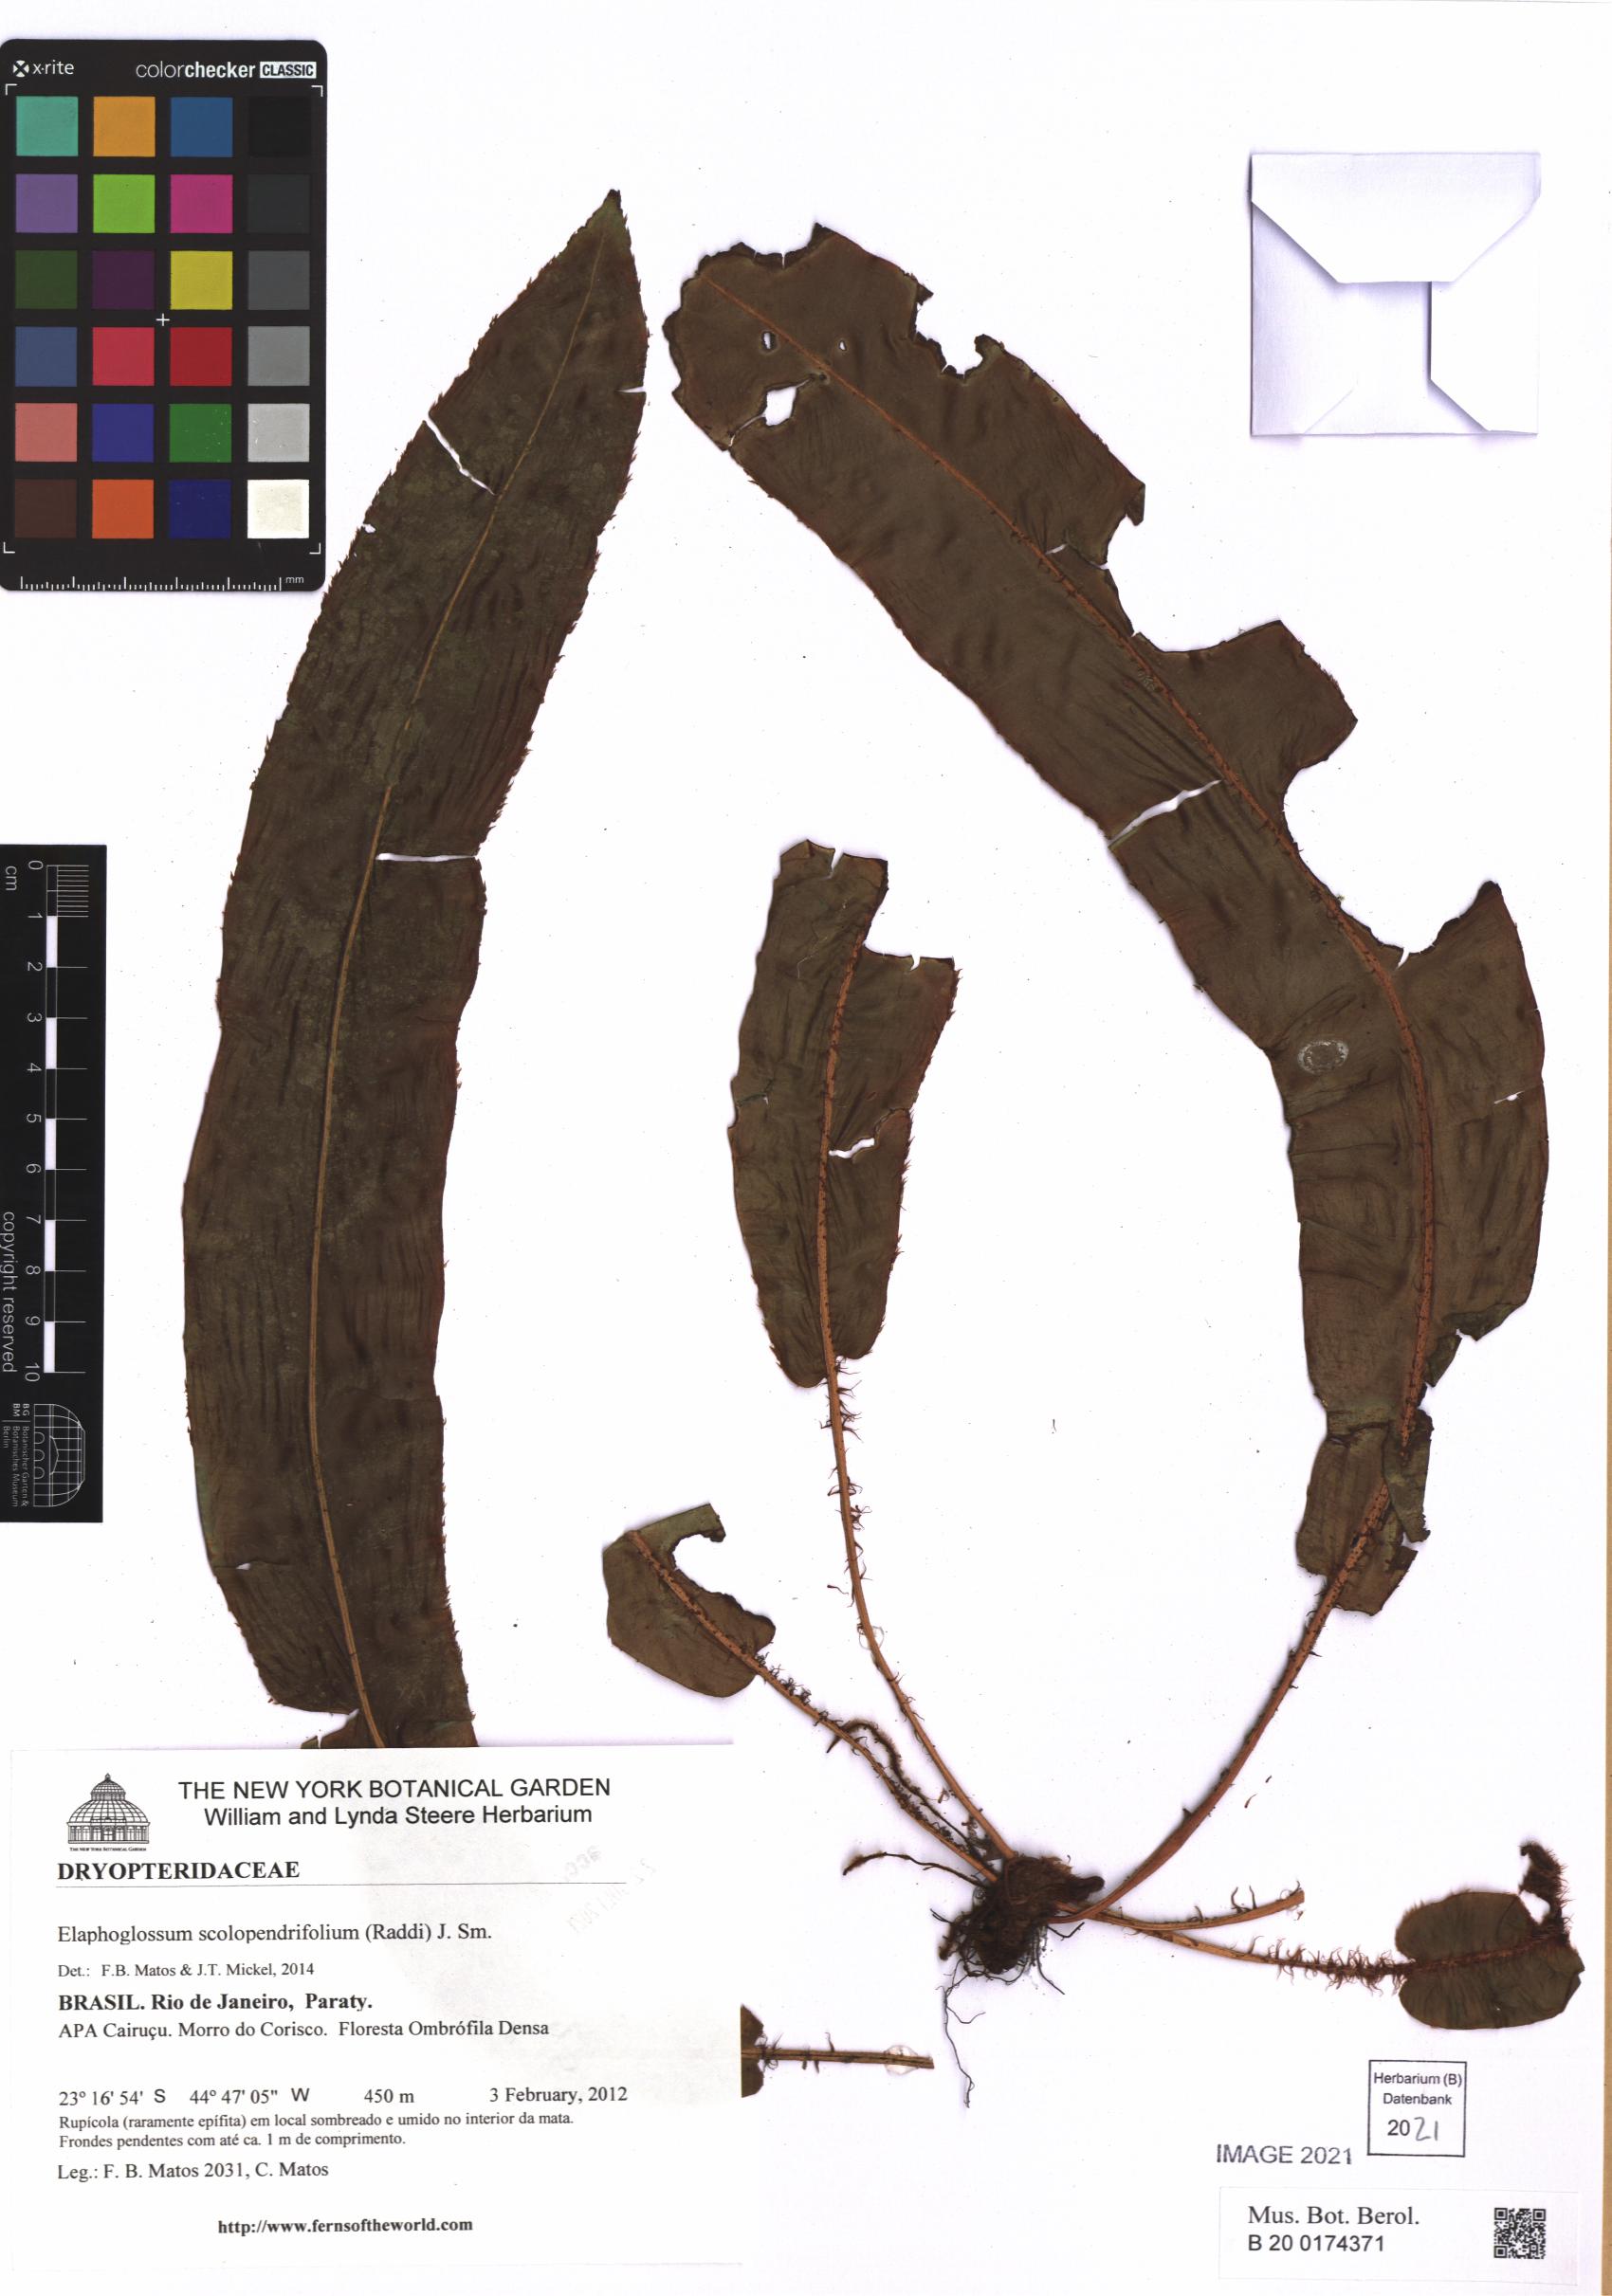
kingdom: Plantae
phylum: Tracheophyta
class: Polypodiopsida
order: Polypodiales
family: Dryopteridaceae
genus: Elaphoglossum
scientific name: Elaphoglossum scolopendrifolium
